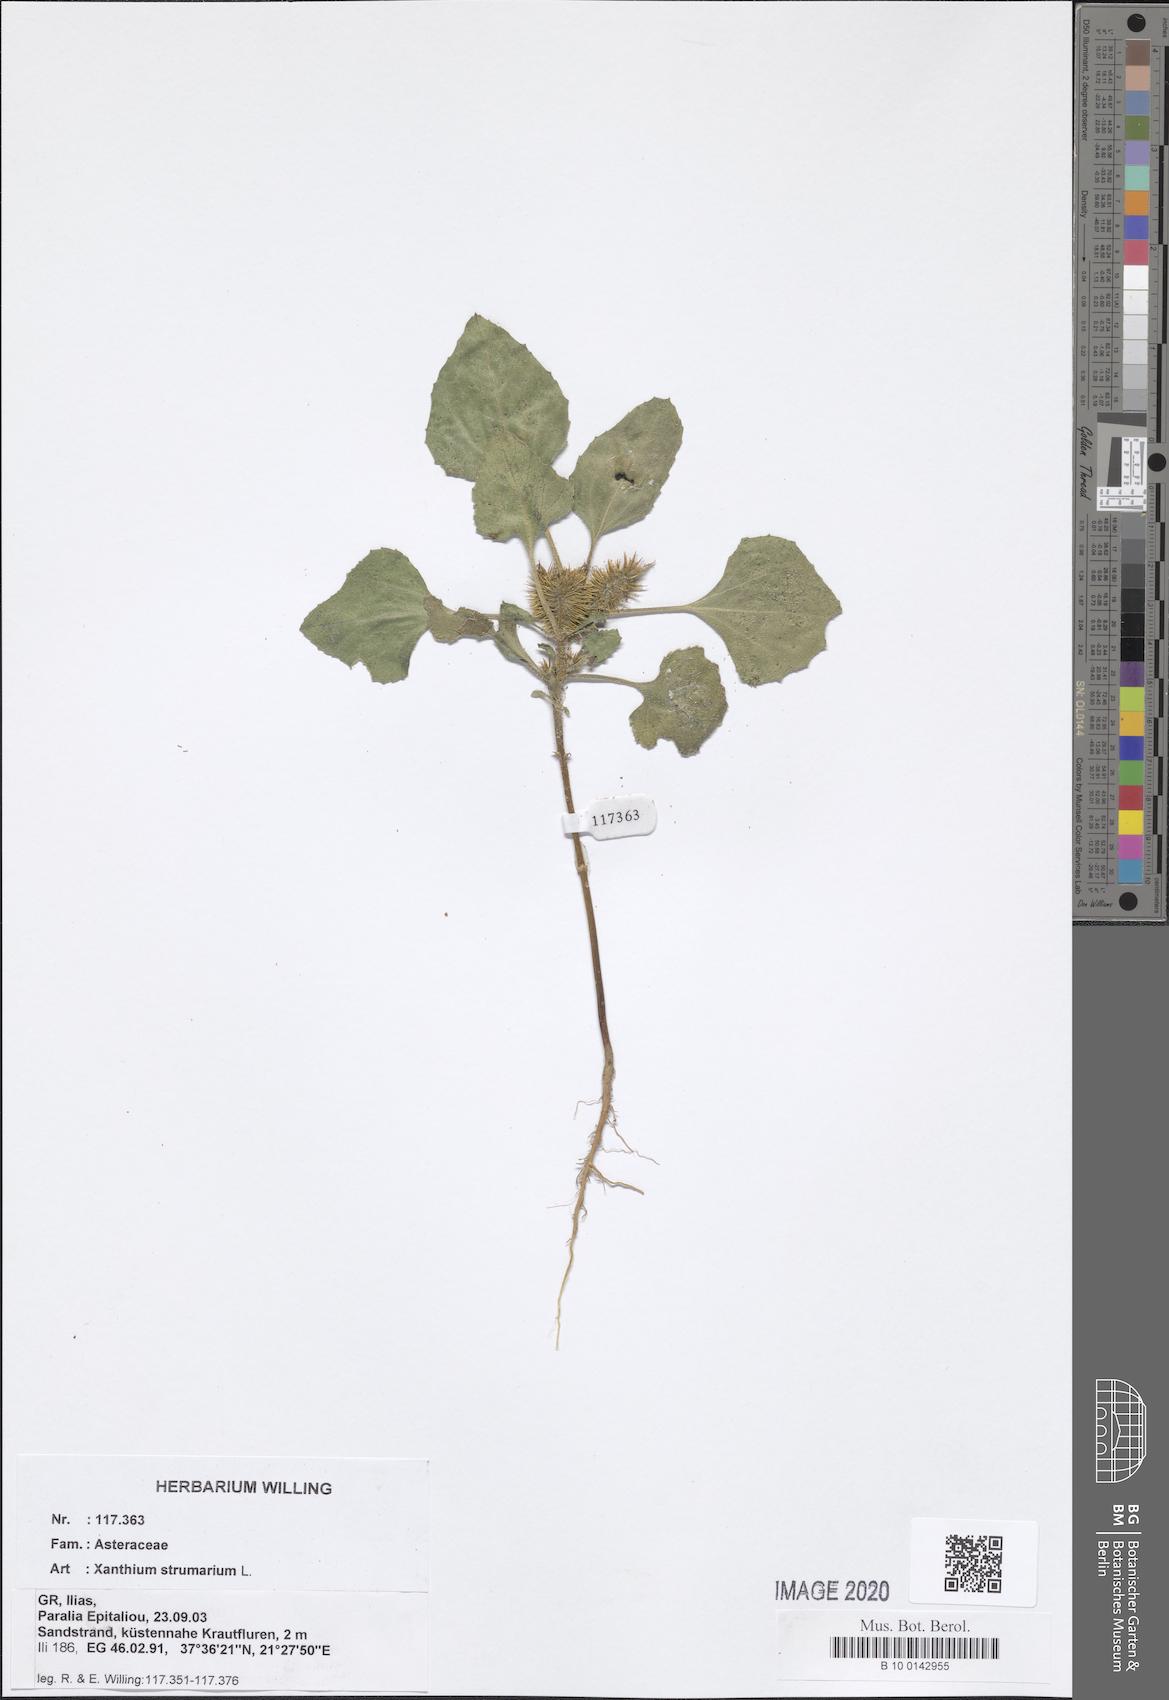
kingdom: Plantae
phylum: Tracheophyta
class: Magnoliopsida
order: Asterales
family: Asteraceae
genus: Xanthium
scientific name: Xanthium strumarium
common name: Rough cocklebur
